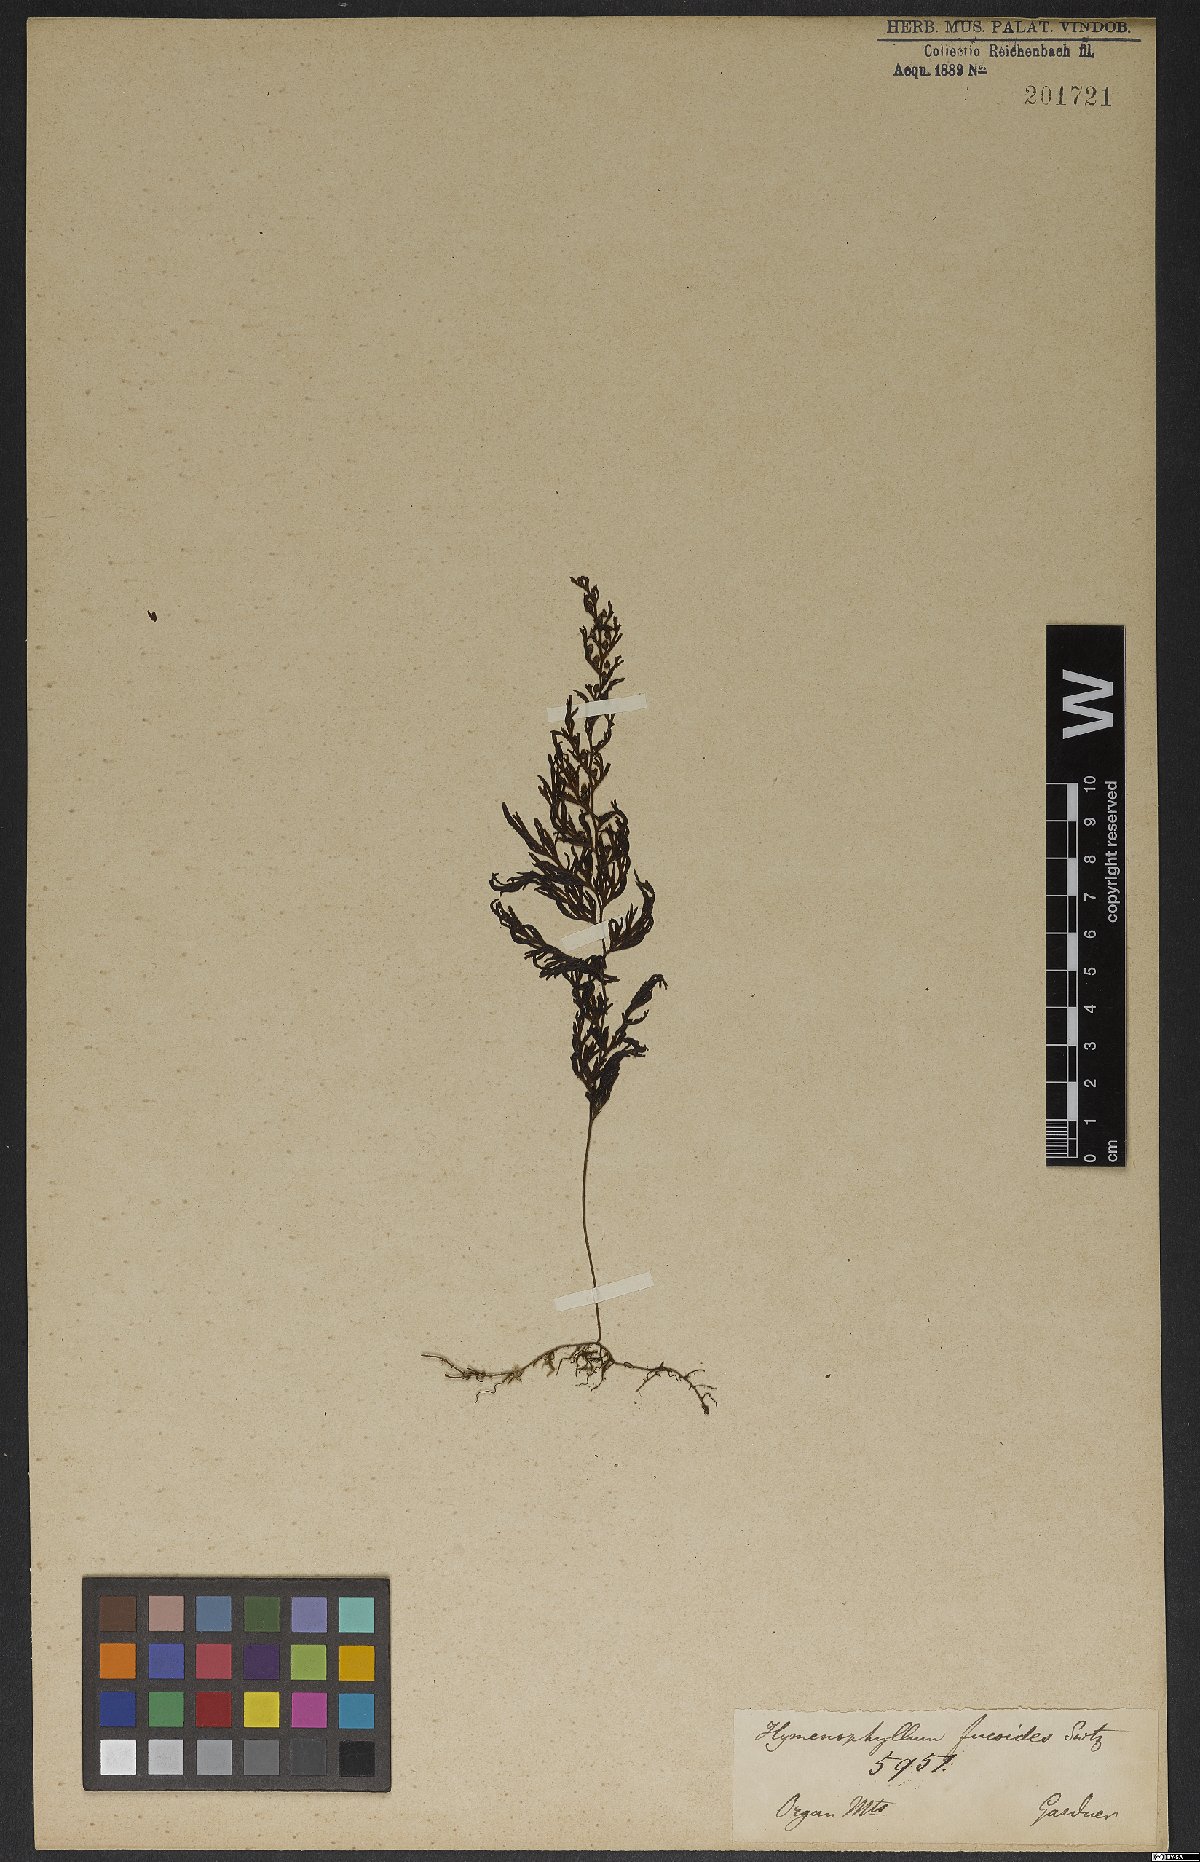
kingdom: Plantae
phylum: Tracheophyta
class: Polypodiopsida
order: Hymenophyllales
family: Hymenophyllaceae
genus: Hymenophyllum
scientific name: Hymenophyllum fucoides
